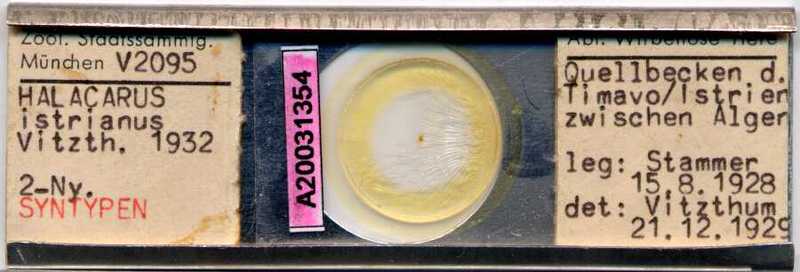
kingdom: Animalia
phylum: Arthropoda
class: Arachnida
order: Trombidiformes
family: Halacaridae
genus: Thalassarachna
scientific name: Thalassarachna affinis
